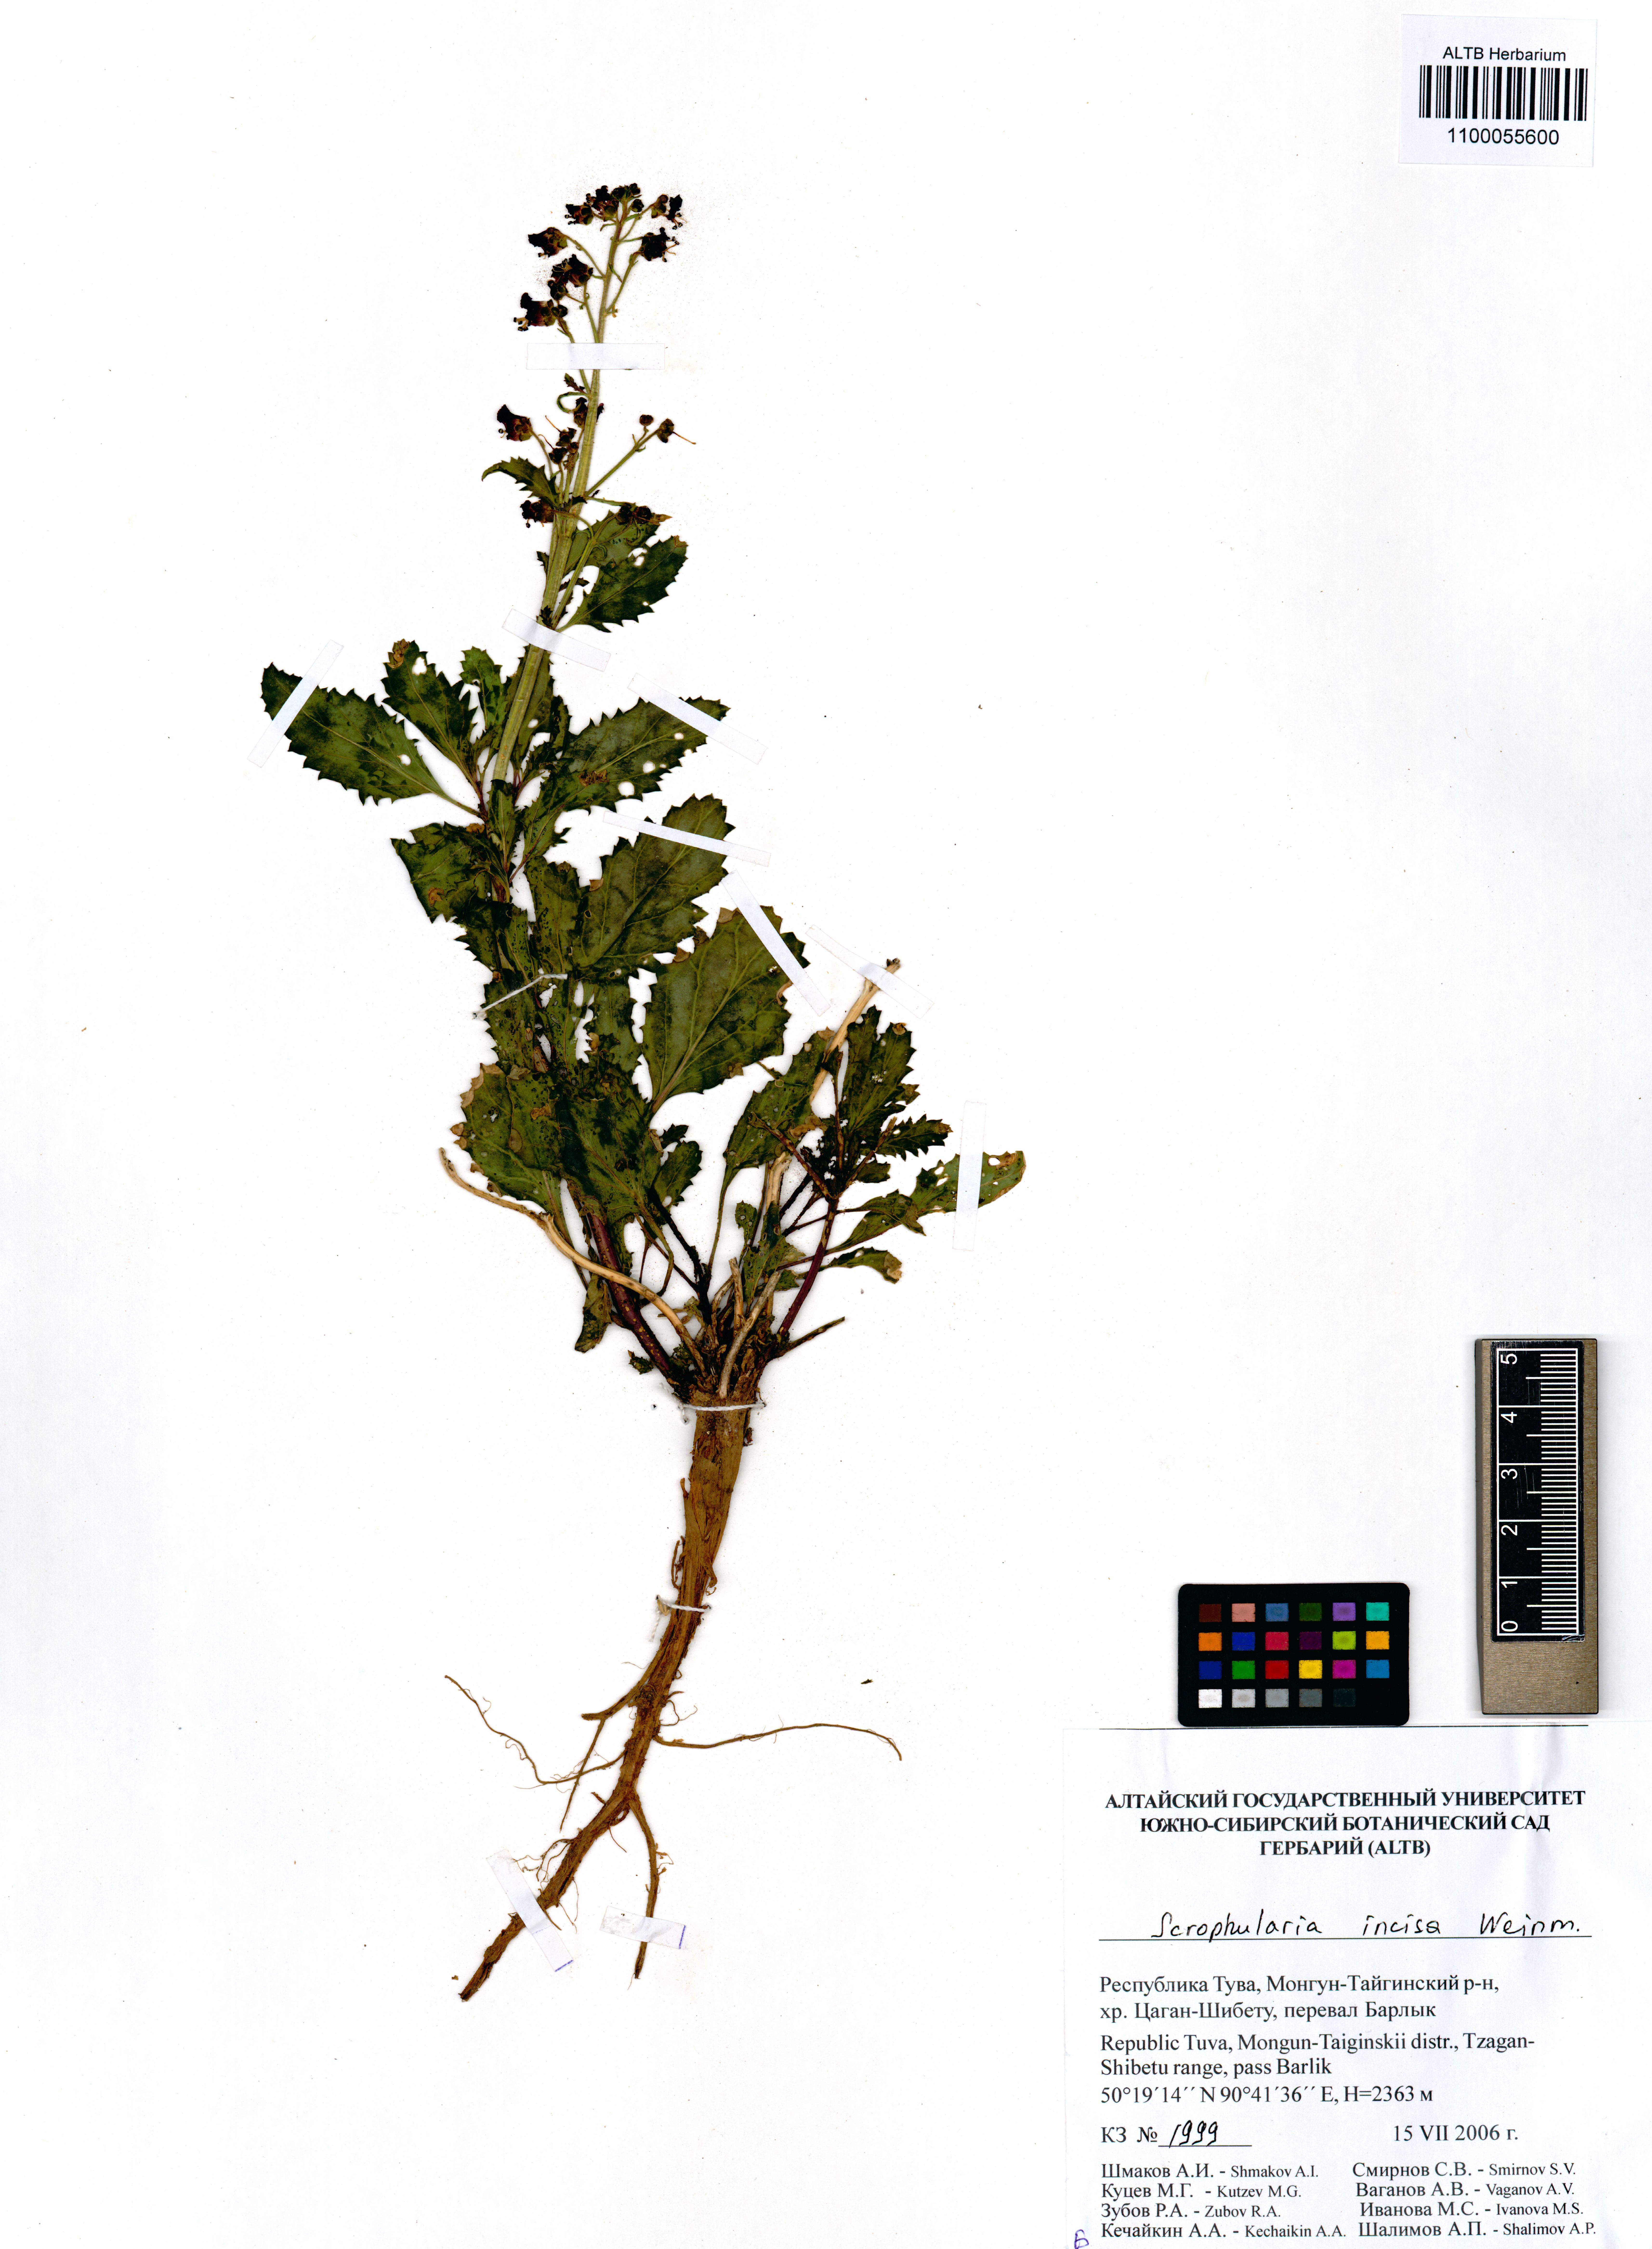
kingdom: Plantae
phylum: Tracheophyta
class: Magnoliopsida
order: Lamiales
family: Scrophulariaceae
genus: Scrophularia
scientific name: Scrophularia incisa
